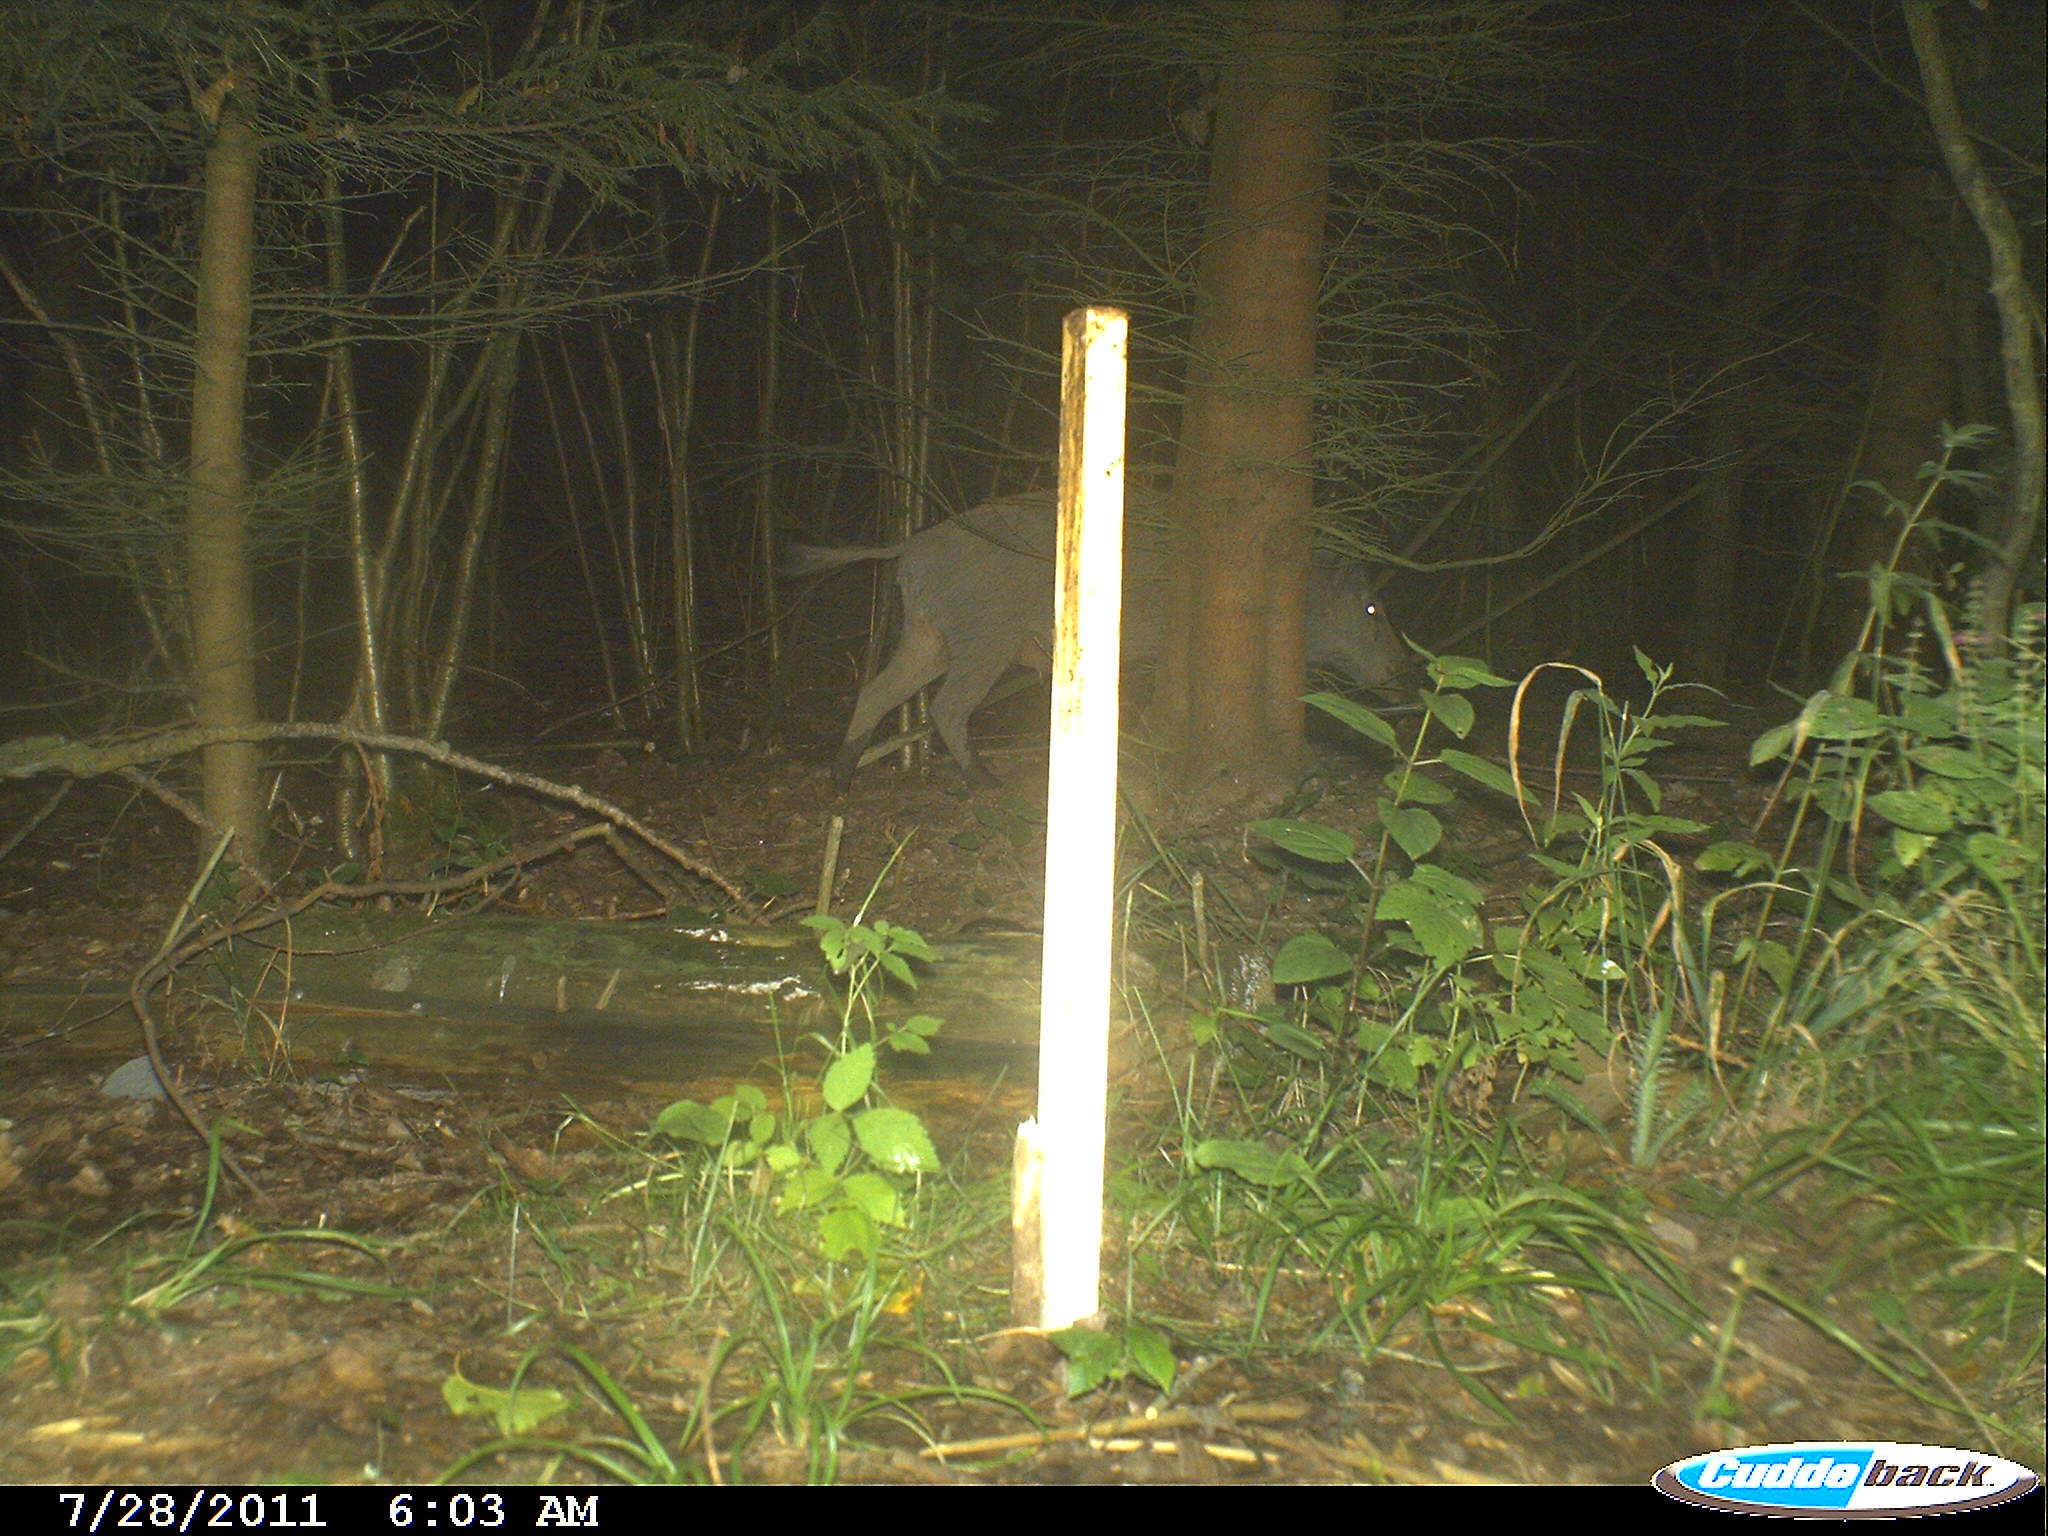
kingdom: Animalia
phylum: Chordata
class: Mammalia
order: Artiodactyla
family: Suidae
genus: Sus
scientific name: Sus scrofa
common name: Wild boar
